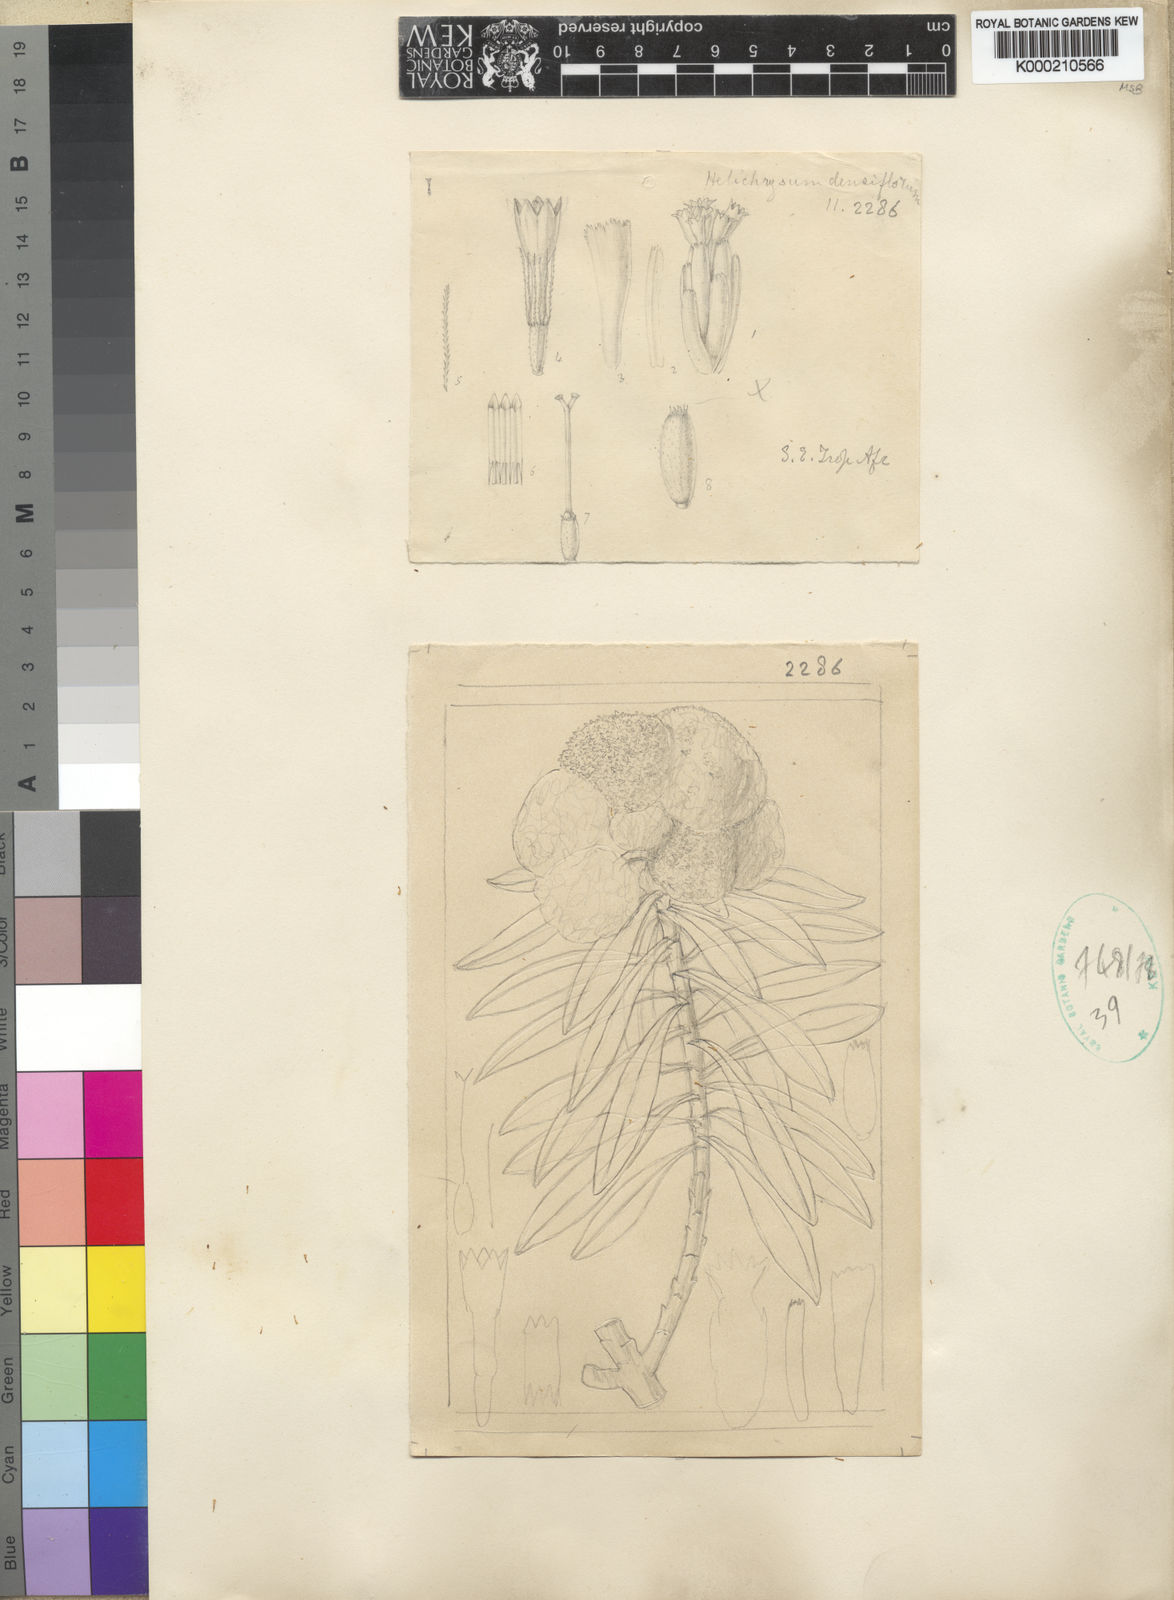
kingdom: Plantae
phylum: Tracheophyta
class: Magnoliopsida
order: Asterales
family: Asteraceae
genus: Helichrysum
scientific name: Helichrysum densiflorum
